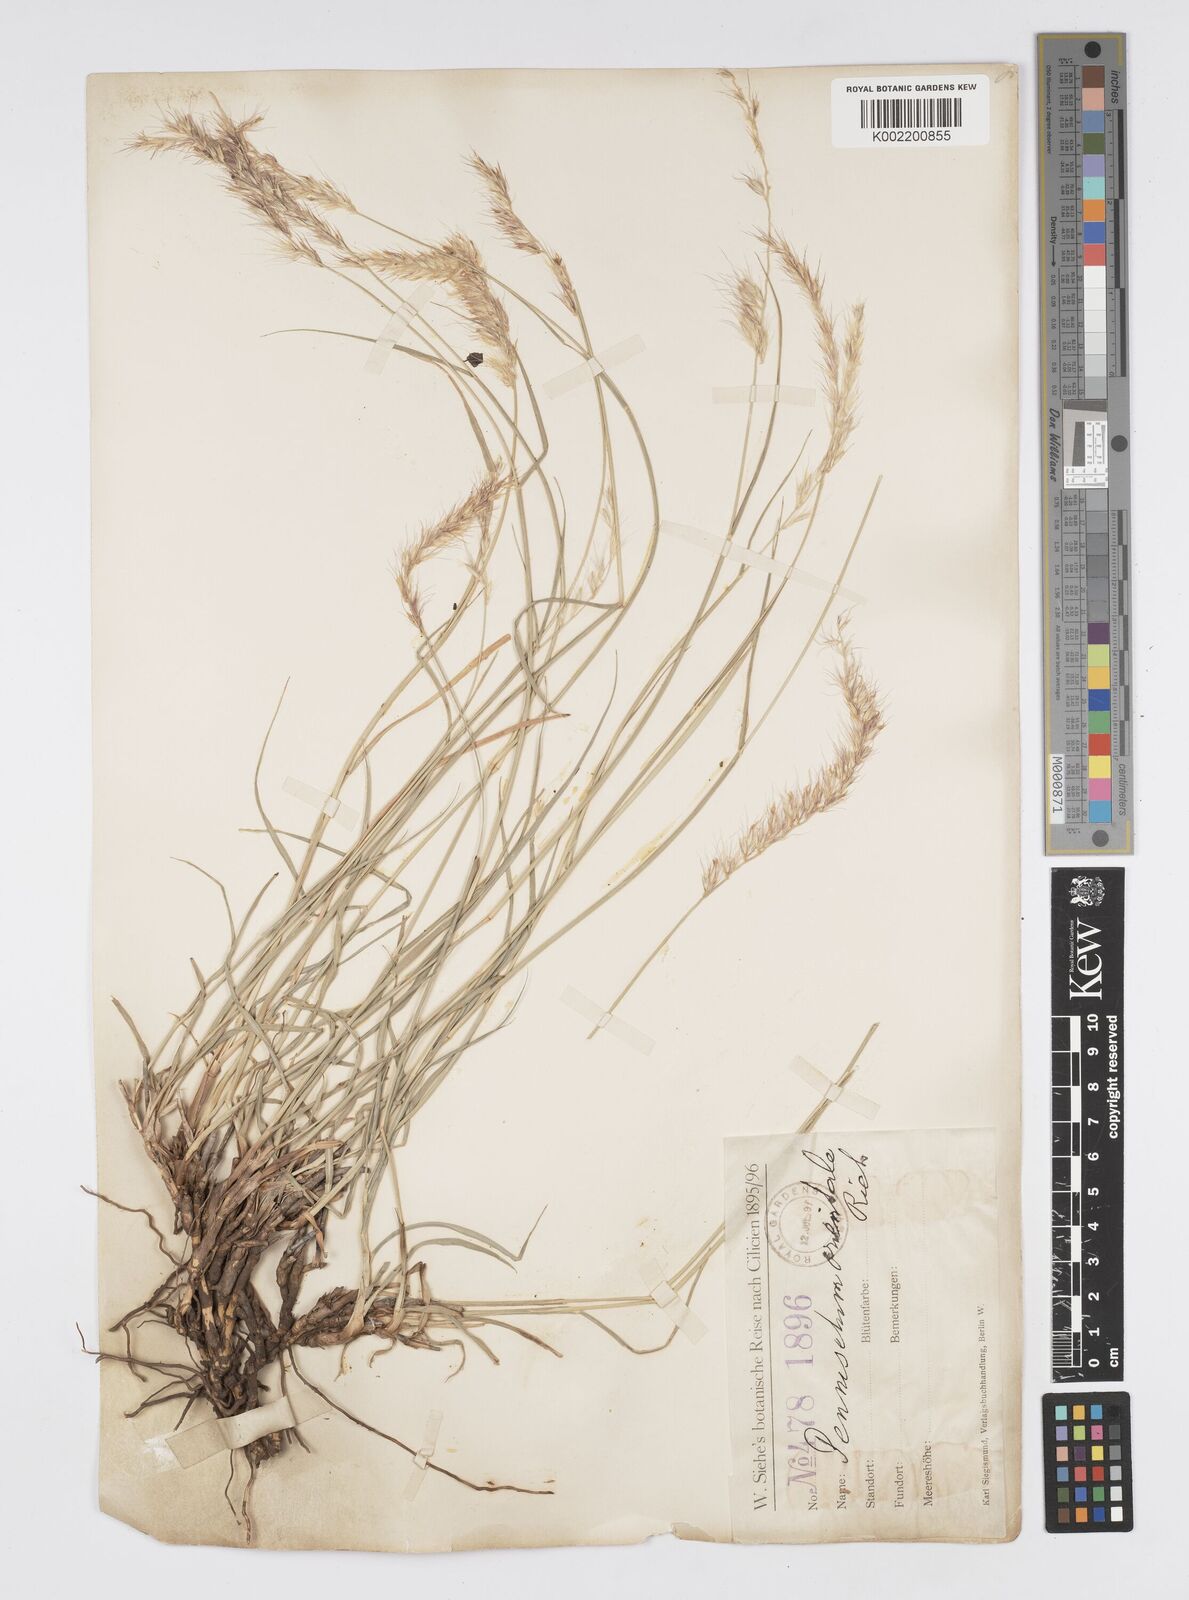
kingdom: Plantae
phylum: Tracheophyta
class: Liliopsida
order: Poales
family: Poaceae
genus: Cenchrus
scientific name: Cenchrus orientalis
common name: Oriental fountain grass
